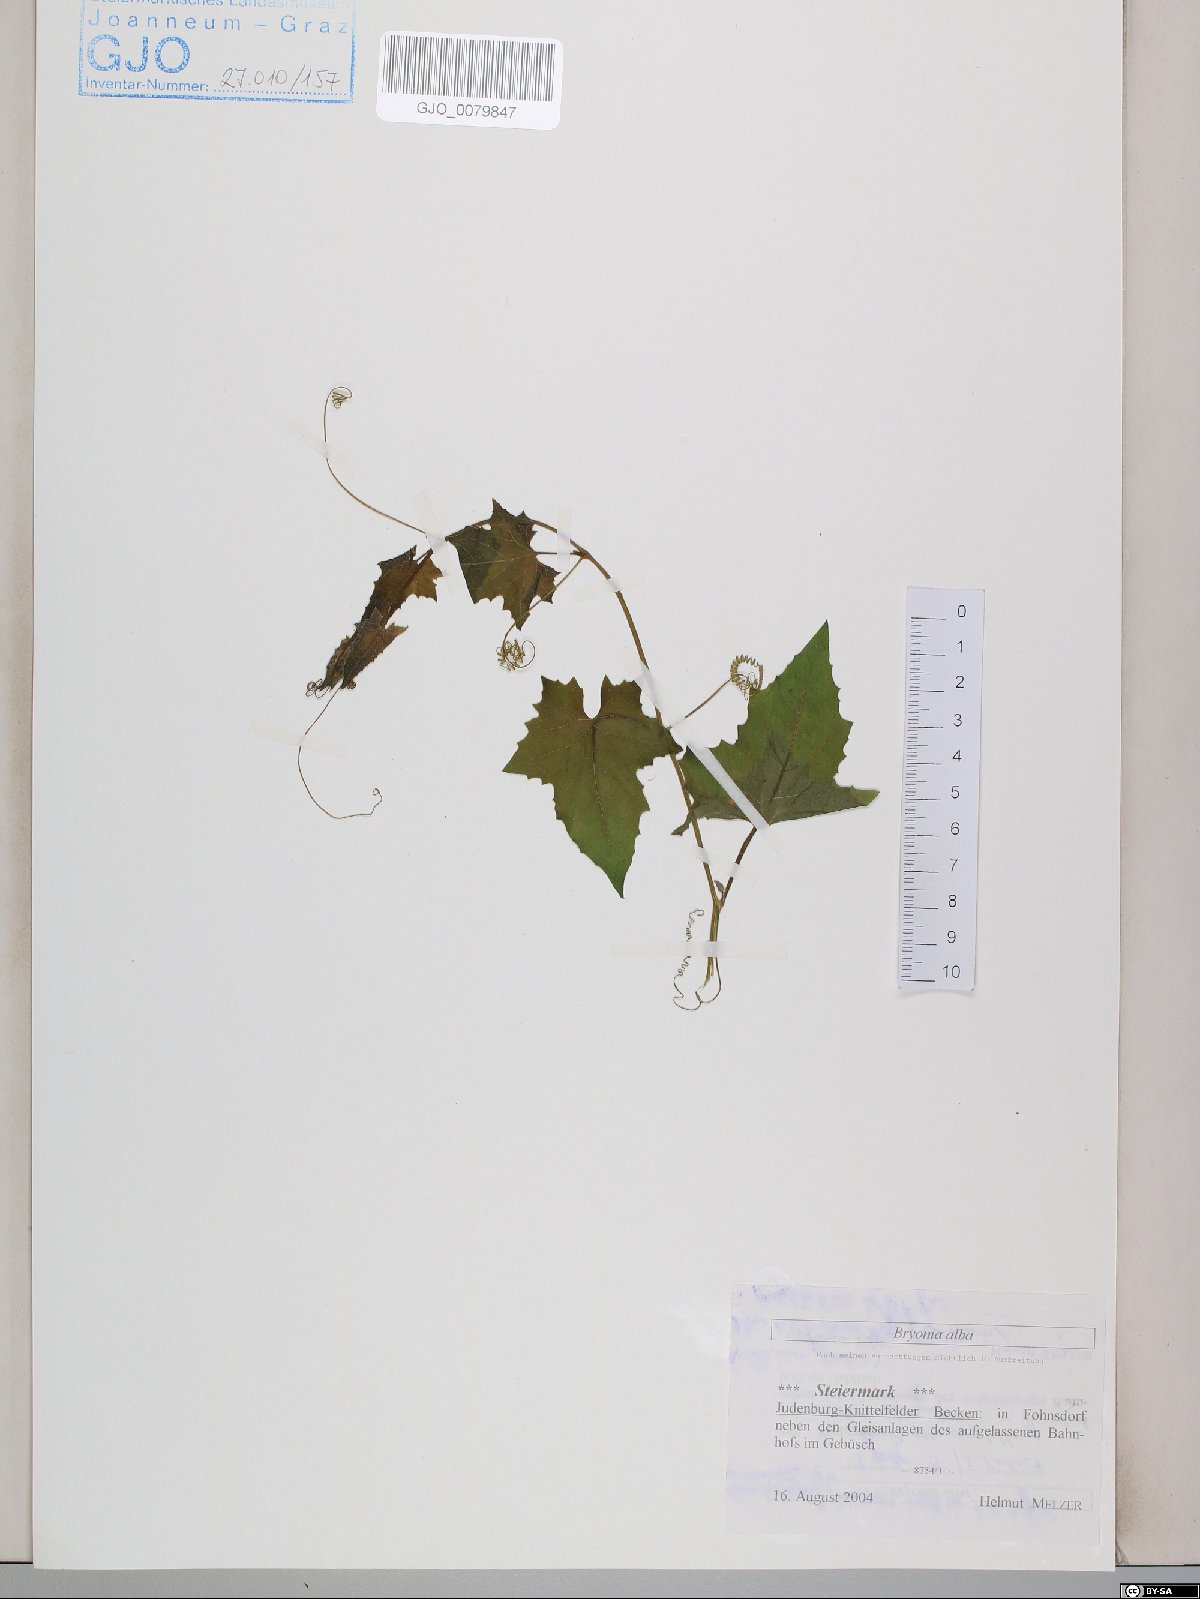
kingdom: Plantae
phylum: Tracheophyta
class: Magnoliopsida
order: Cucurbitales
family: Cucurbitaceae
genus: Bryonia
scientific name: Bryonia alba
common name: White bryony
